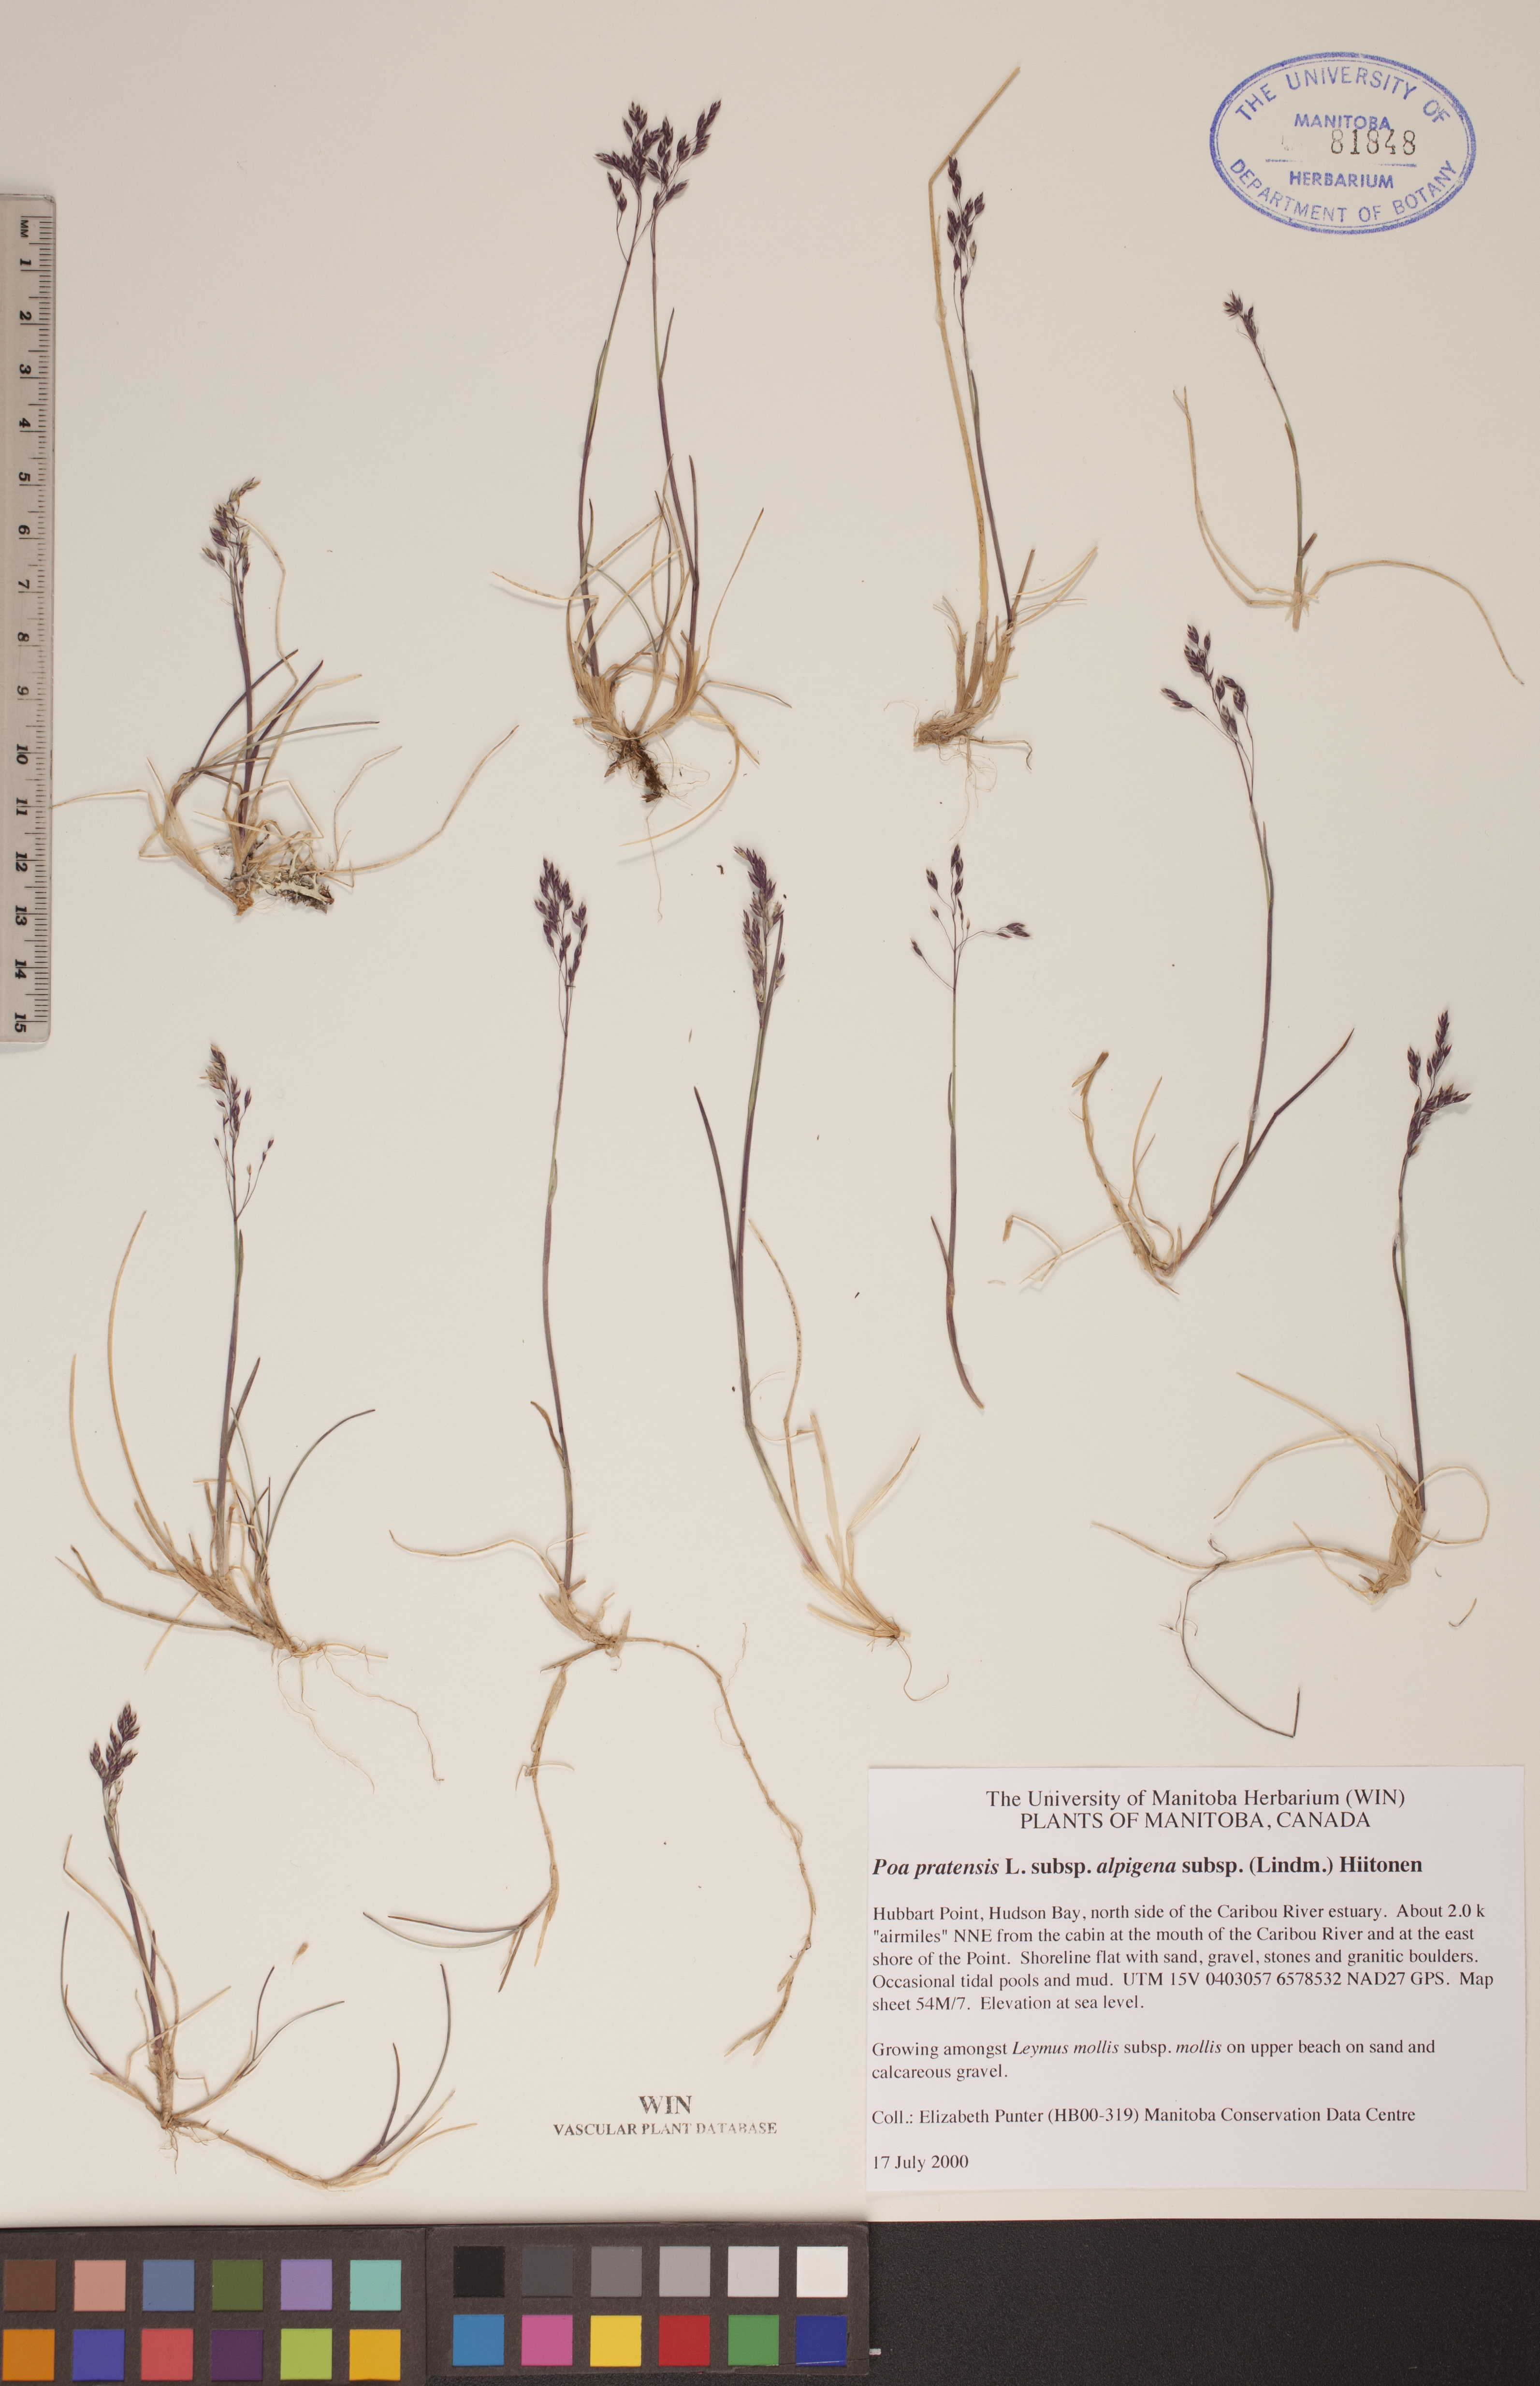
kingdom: Plantae
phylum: Tracheophyta
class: Liliopsida
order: Poales
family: Poaceae
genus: Poa
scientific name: Poa alpigena
